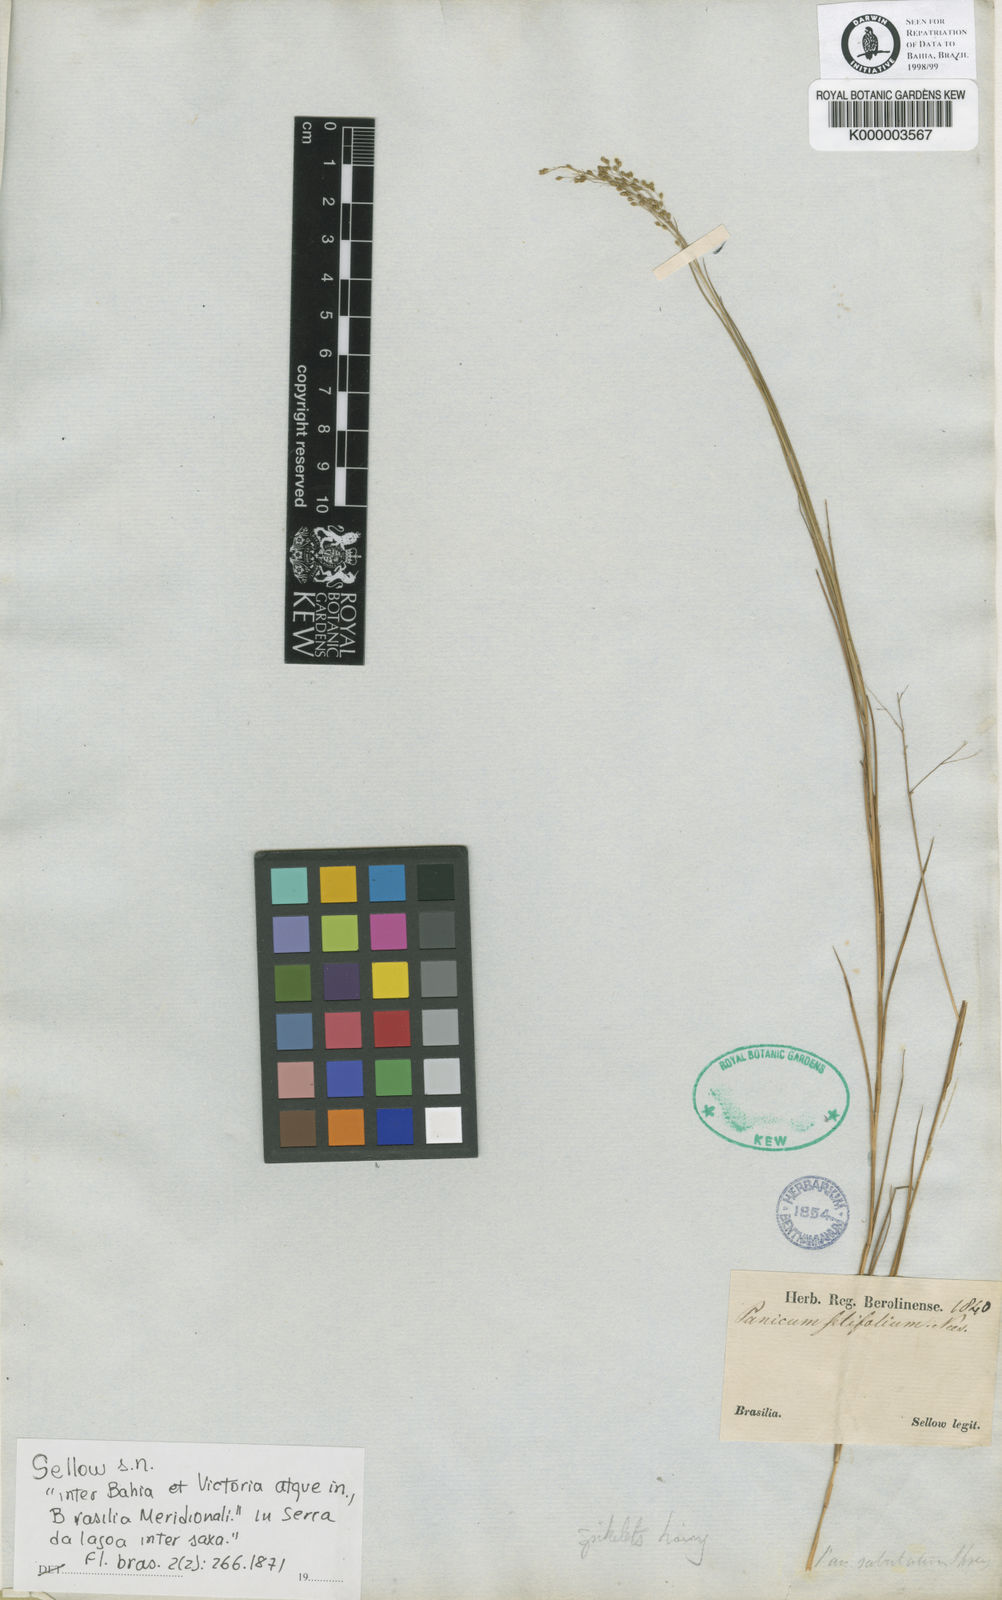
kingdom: Plantae
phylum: Tracheophyta
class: Liliopsida
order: Poales
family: Poaceae
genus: Panicum
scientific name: Panicum rupestre
